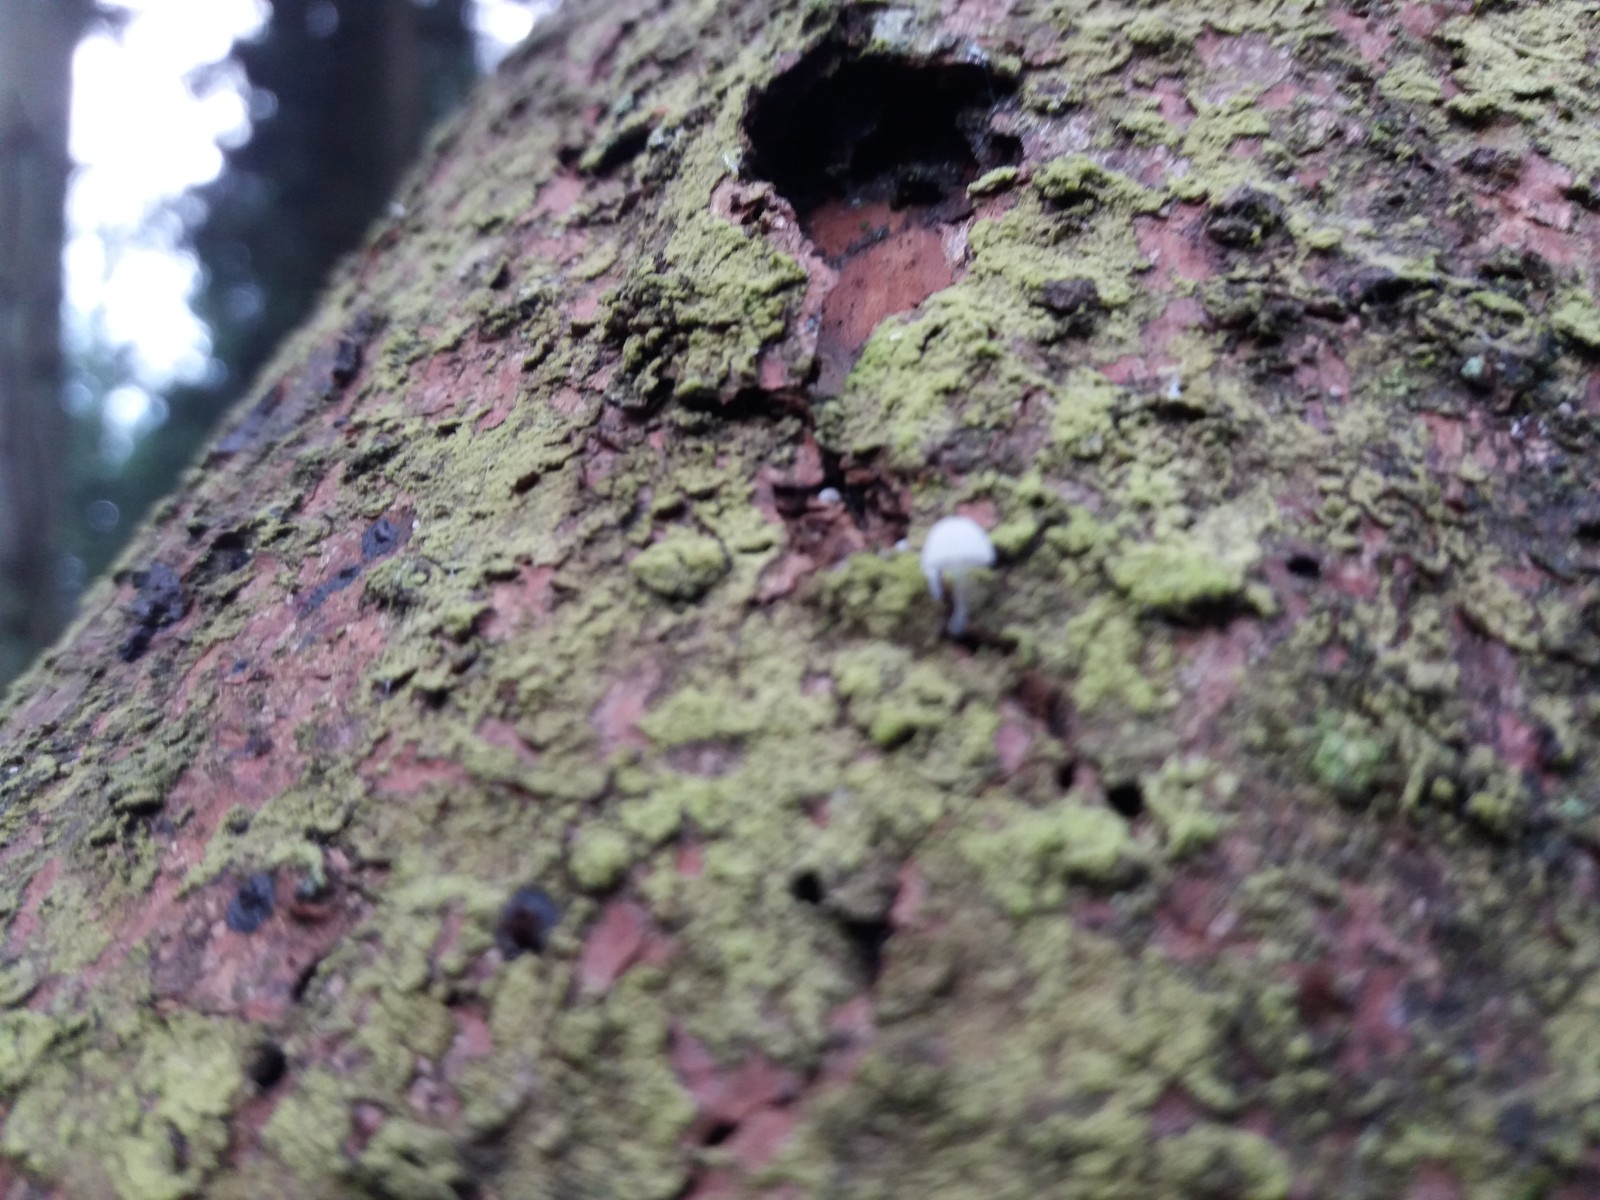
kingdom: Fungi
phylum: Basidiomycota
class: Agaricomycetes
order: Agaricales
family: Mycenaceae
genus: Mycena
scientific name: Mycena tenerrima
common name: pudret huesvamp
